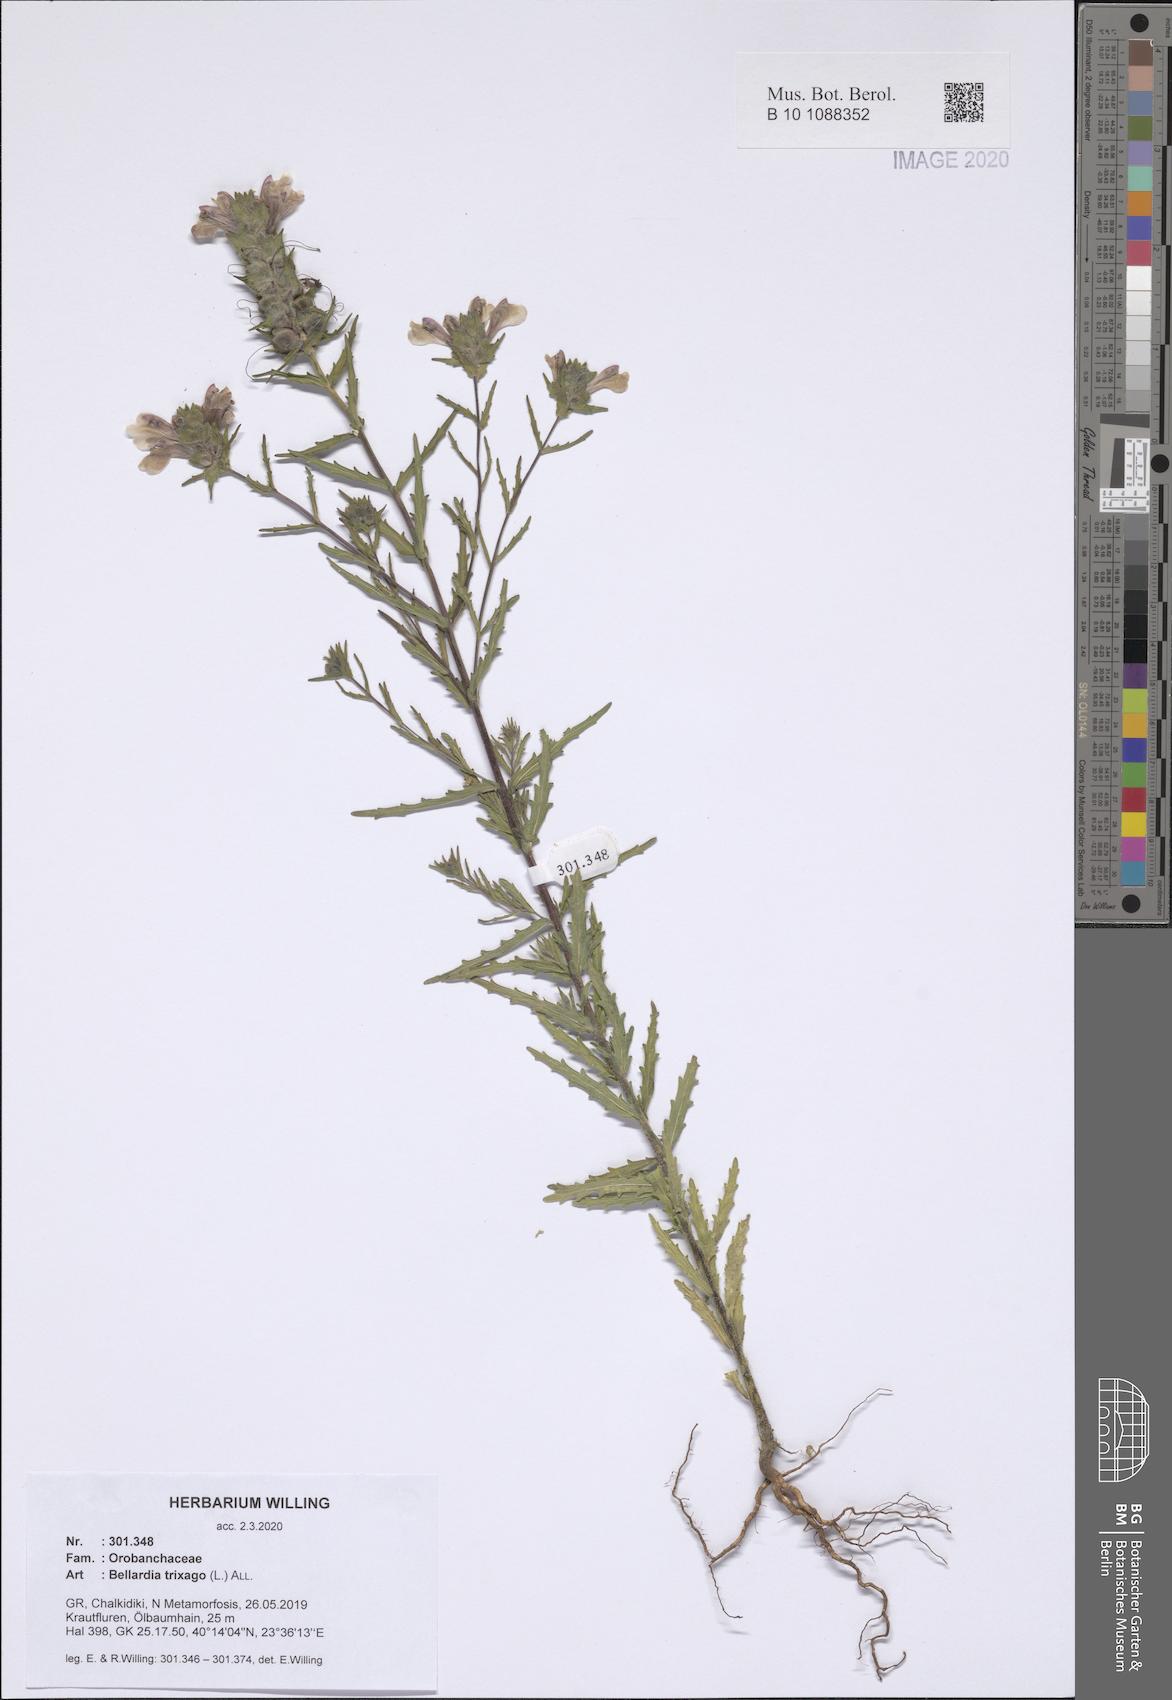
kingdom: Plantae
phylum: Tracheophyta
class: Magnoliopsida
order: Lamiales
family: Orobanchaceae
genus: Bellardia
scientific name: Bellardia trixago
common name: Mediterranean lineseed
